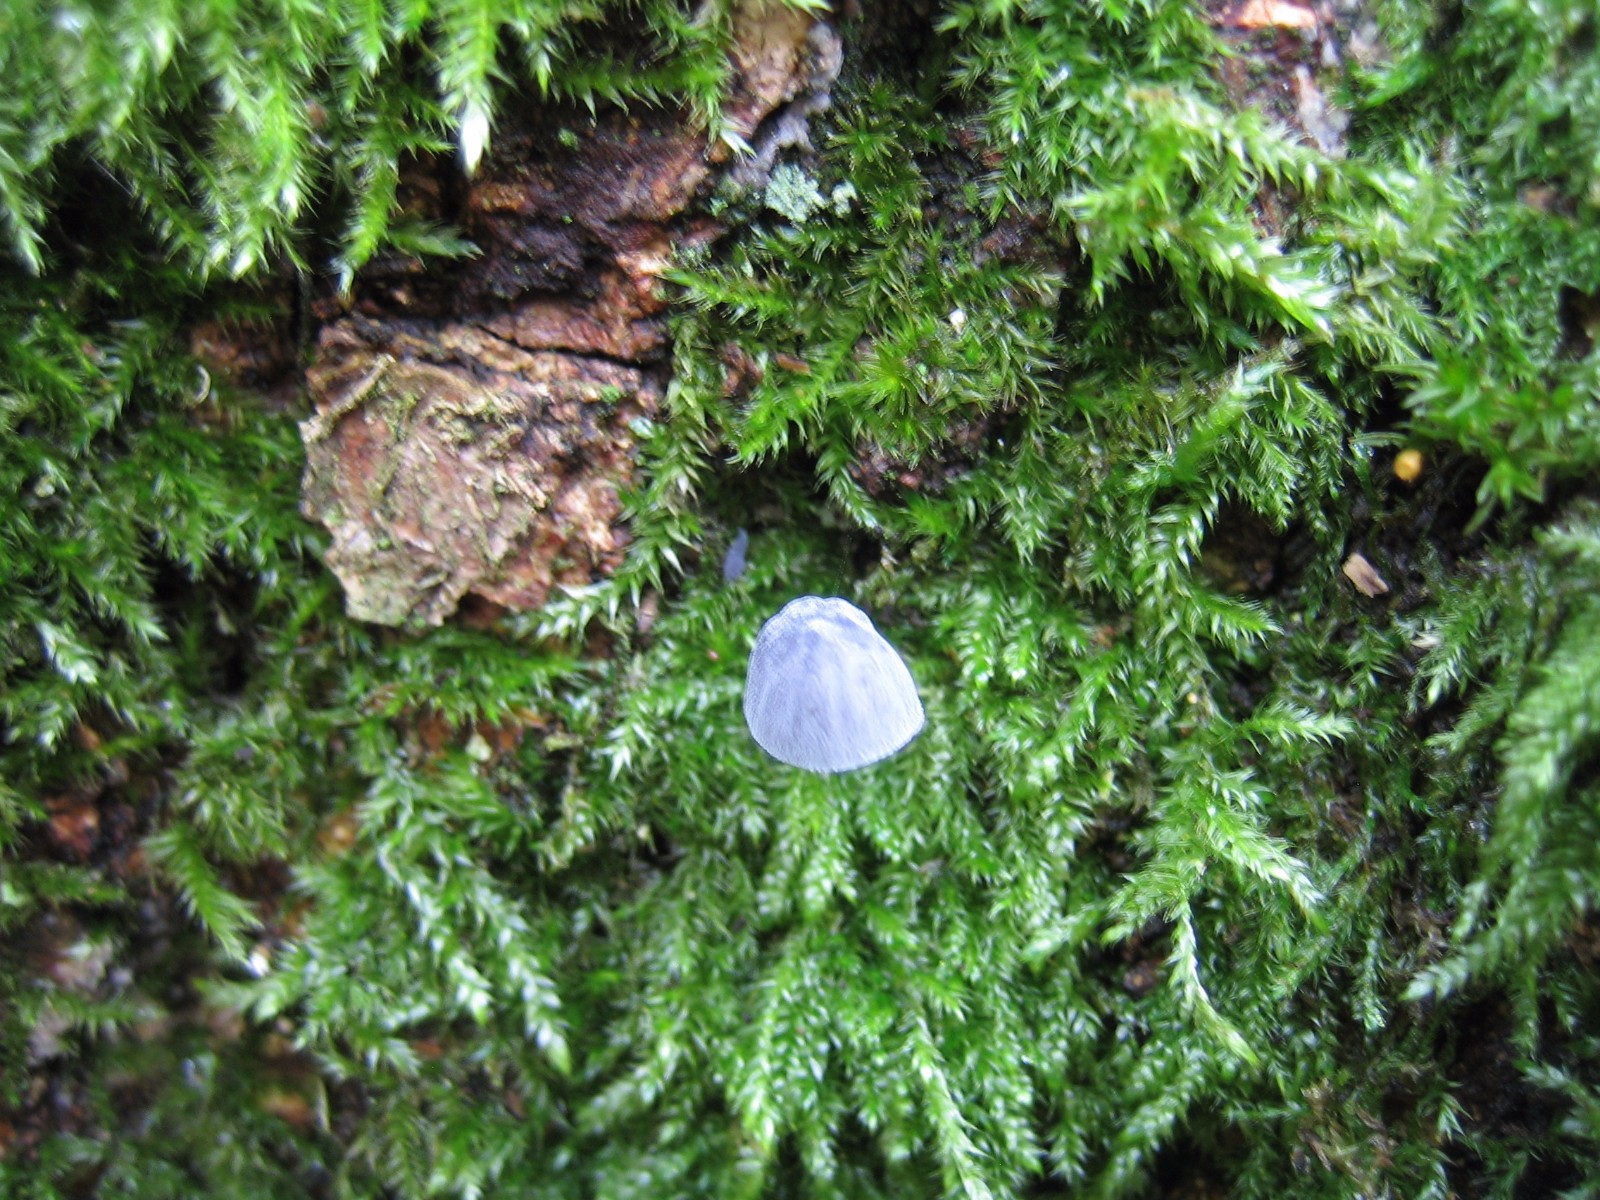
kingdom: Fungi
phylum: Basidiomycota
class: Agaricomycetes
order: Agaricales
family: Mycenaceae
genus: Mycena
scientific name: Mycena pseudocorticola
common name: gråblå bark-huesvamp
